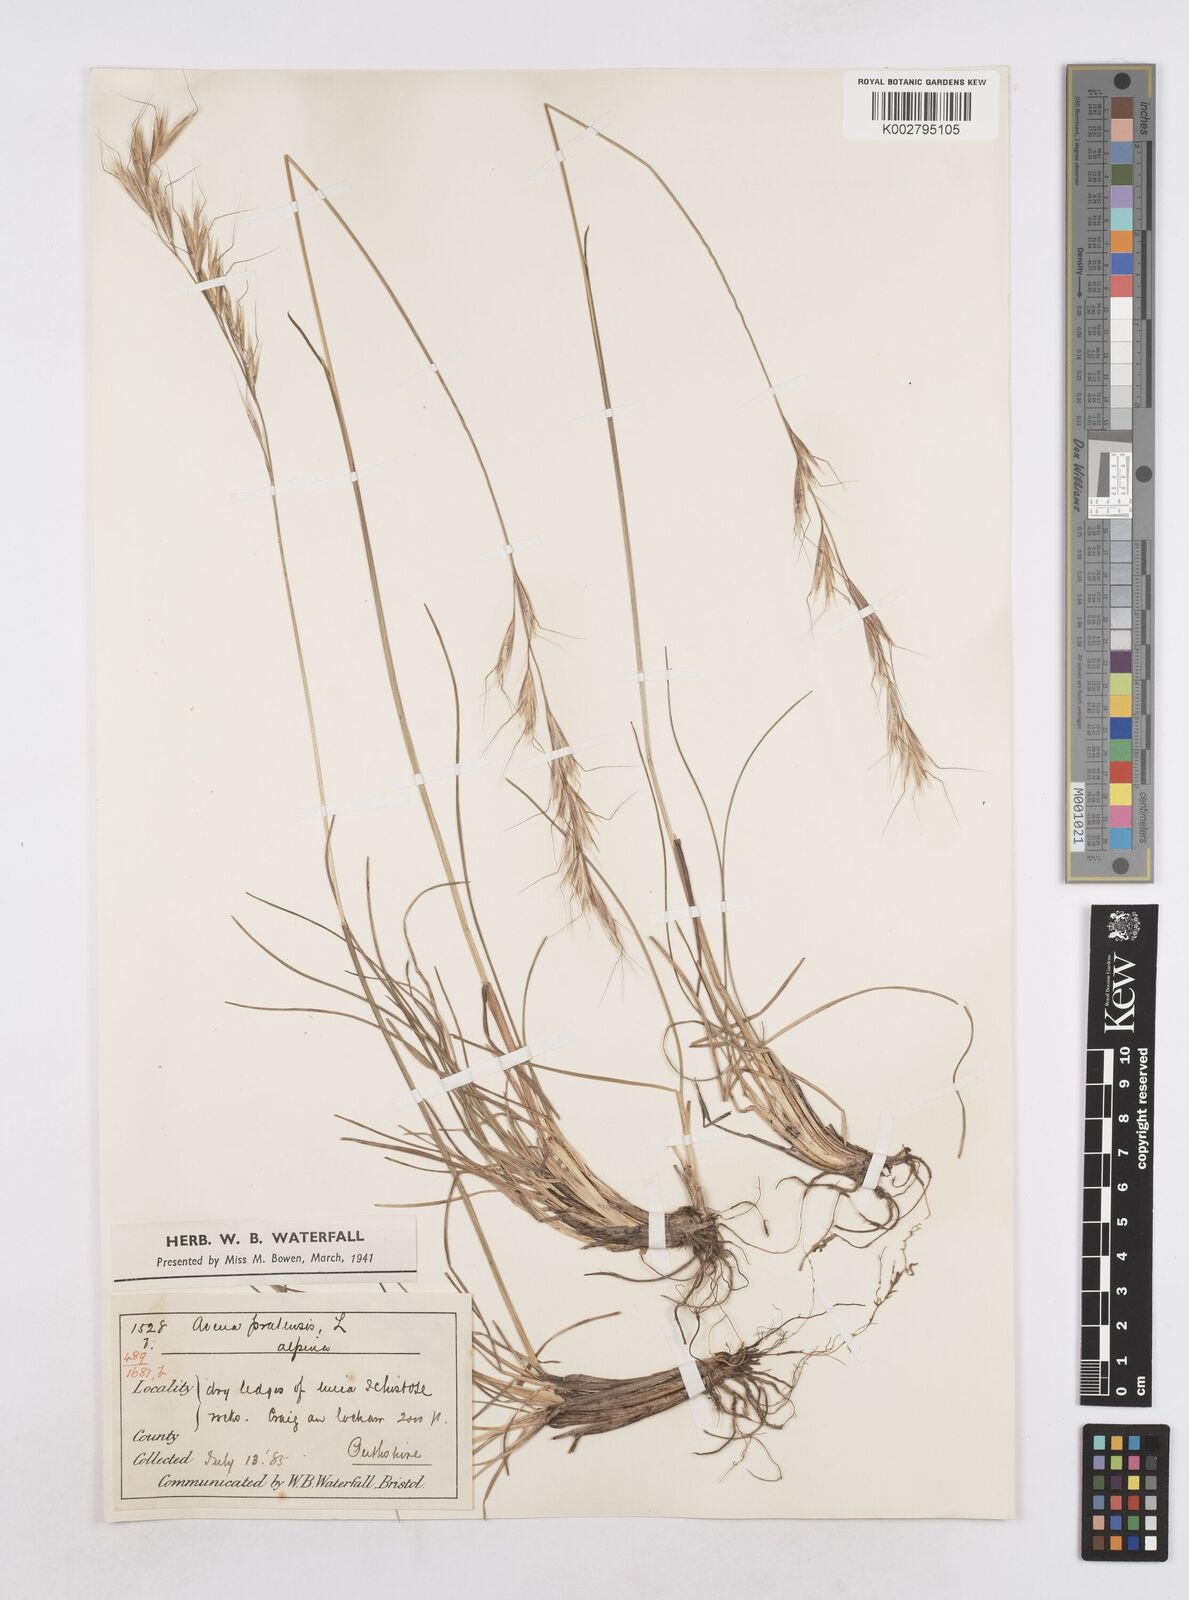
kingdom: Plantae
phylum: Tracheophyta
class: Liliopsida
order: Poales
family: Poaceae
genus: Helictochloa
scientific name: Helictochloa pratensis
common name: Meadow oat grass
